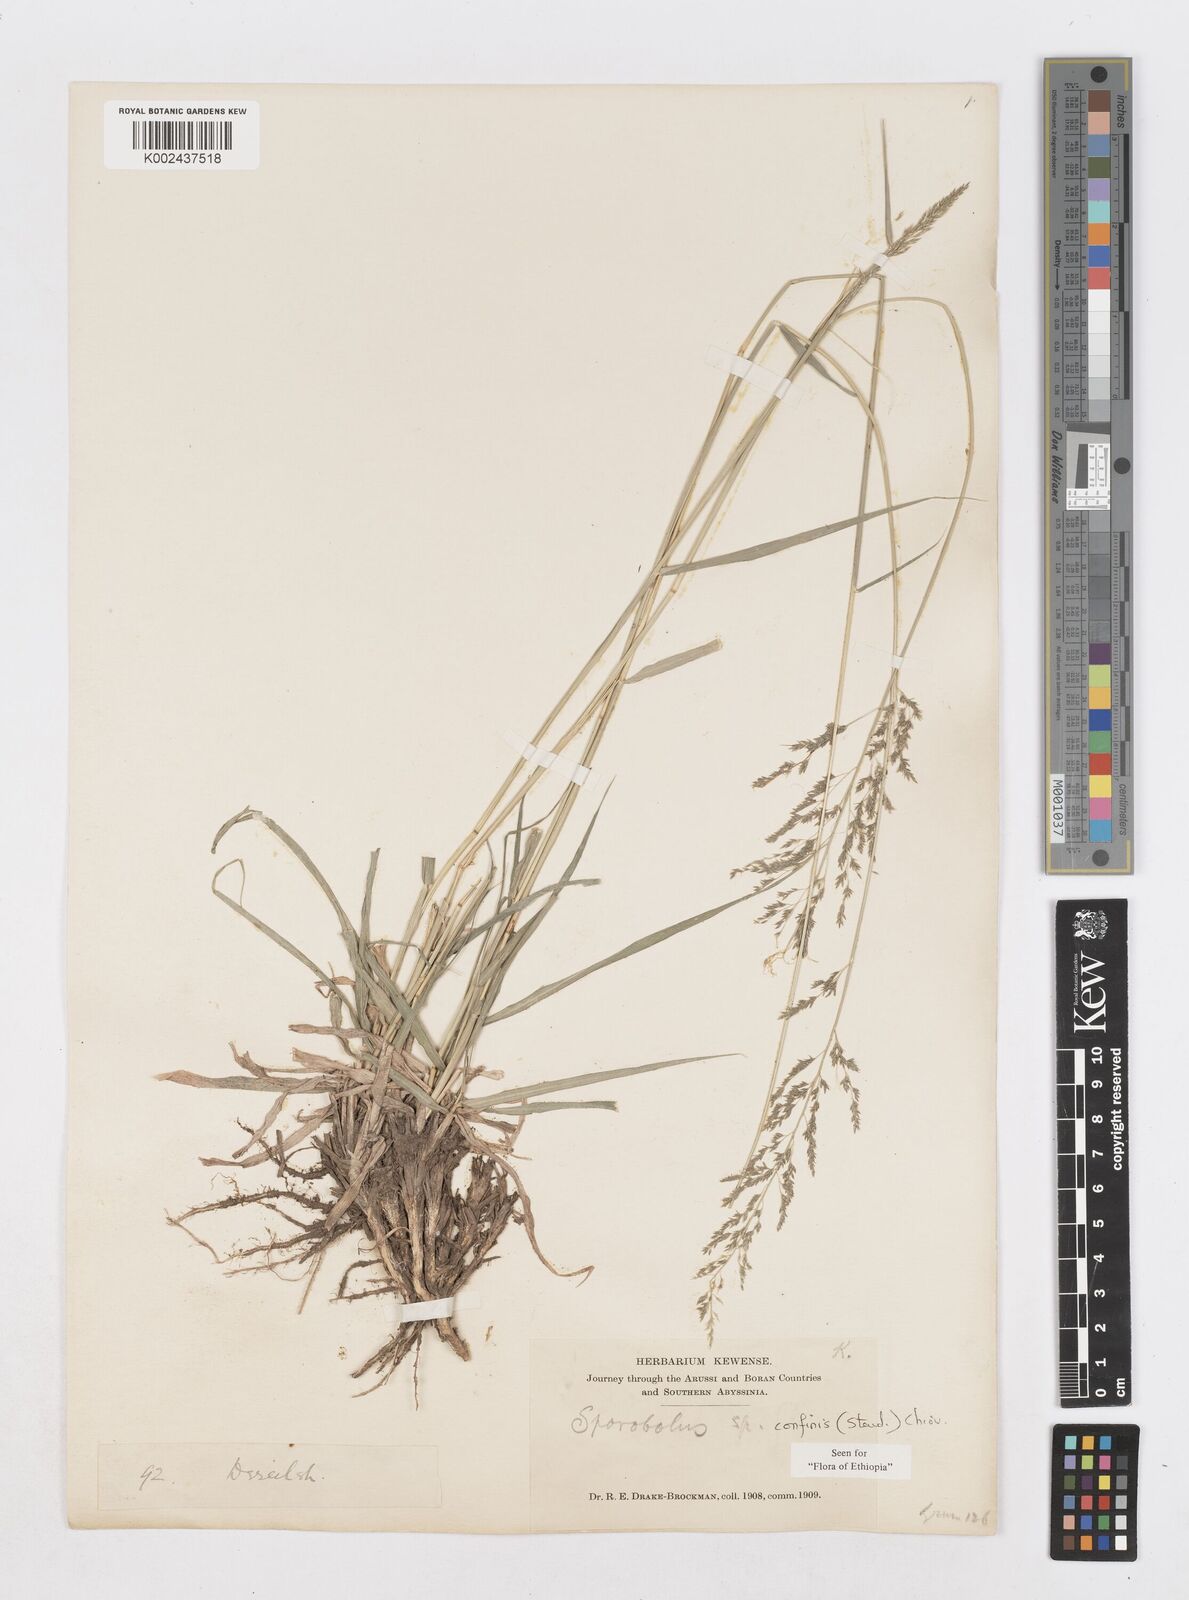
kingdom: Plantae
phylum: Tracheophyta
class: Liliopsida
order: Poales
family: Poaceae
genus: Sporobolus
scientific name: Sporobolus confinis
